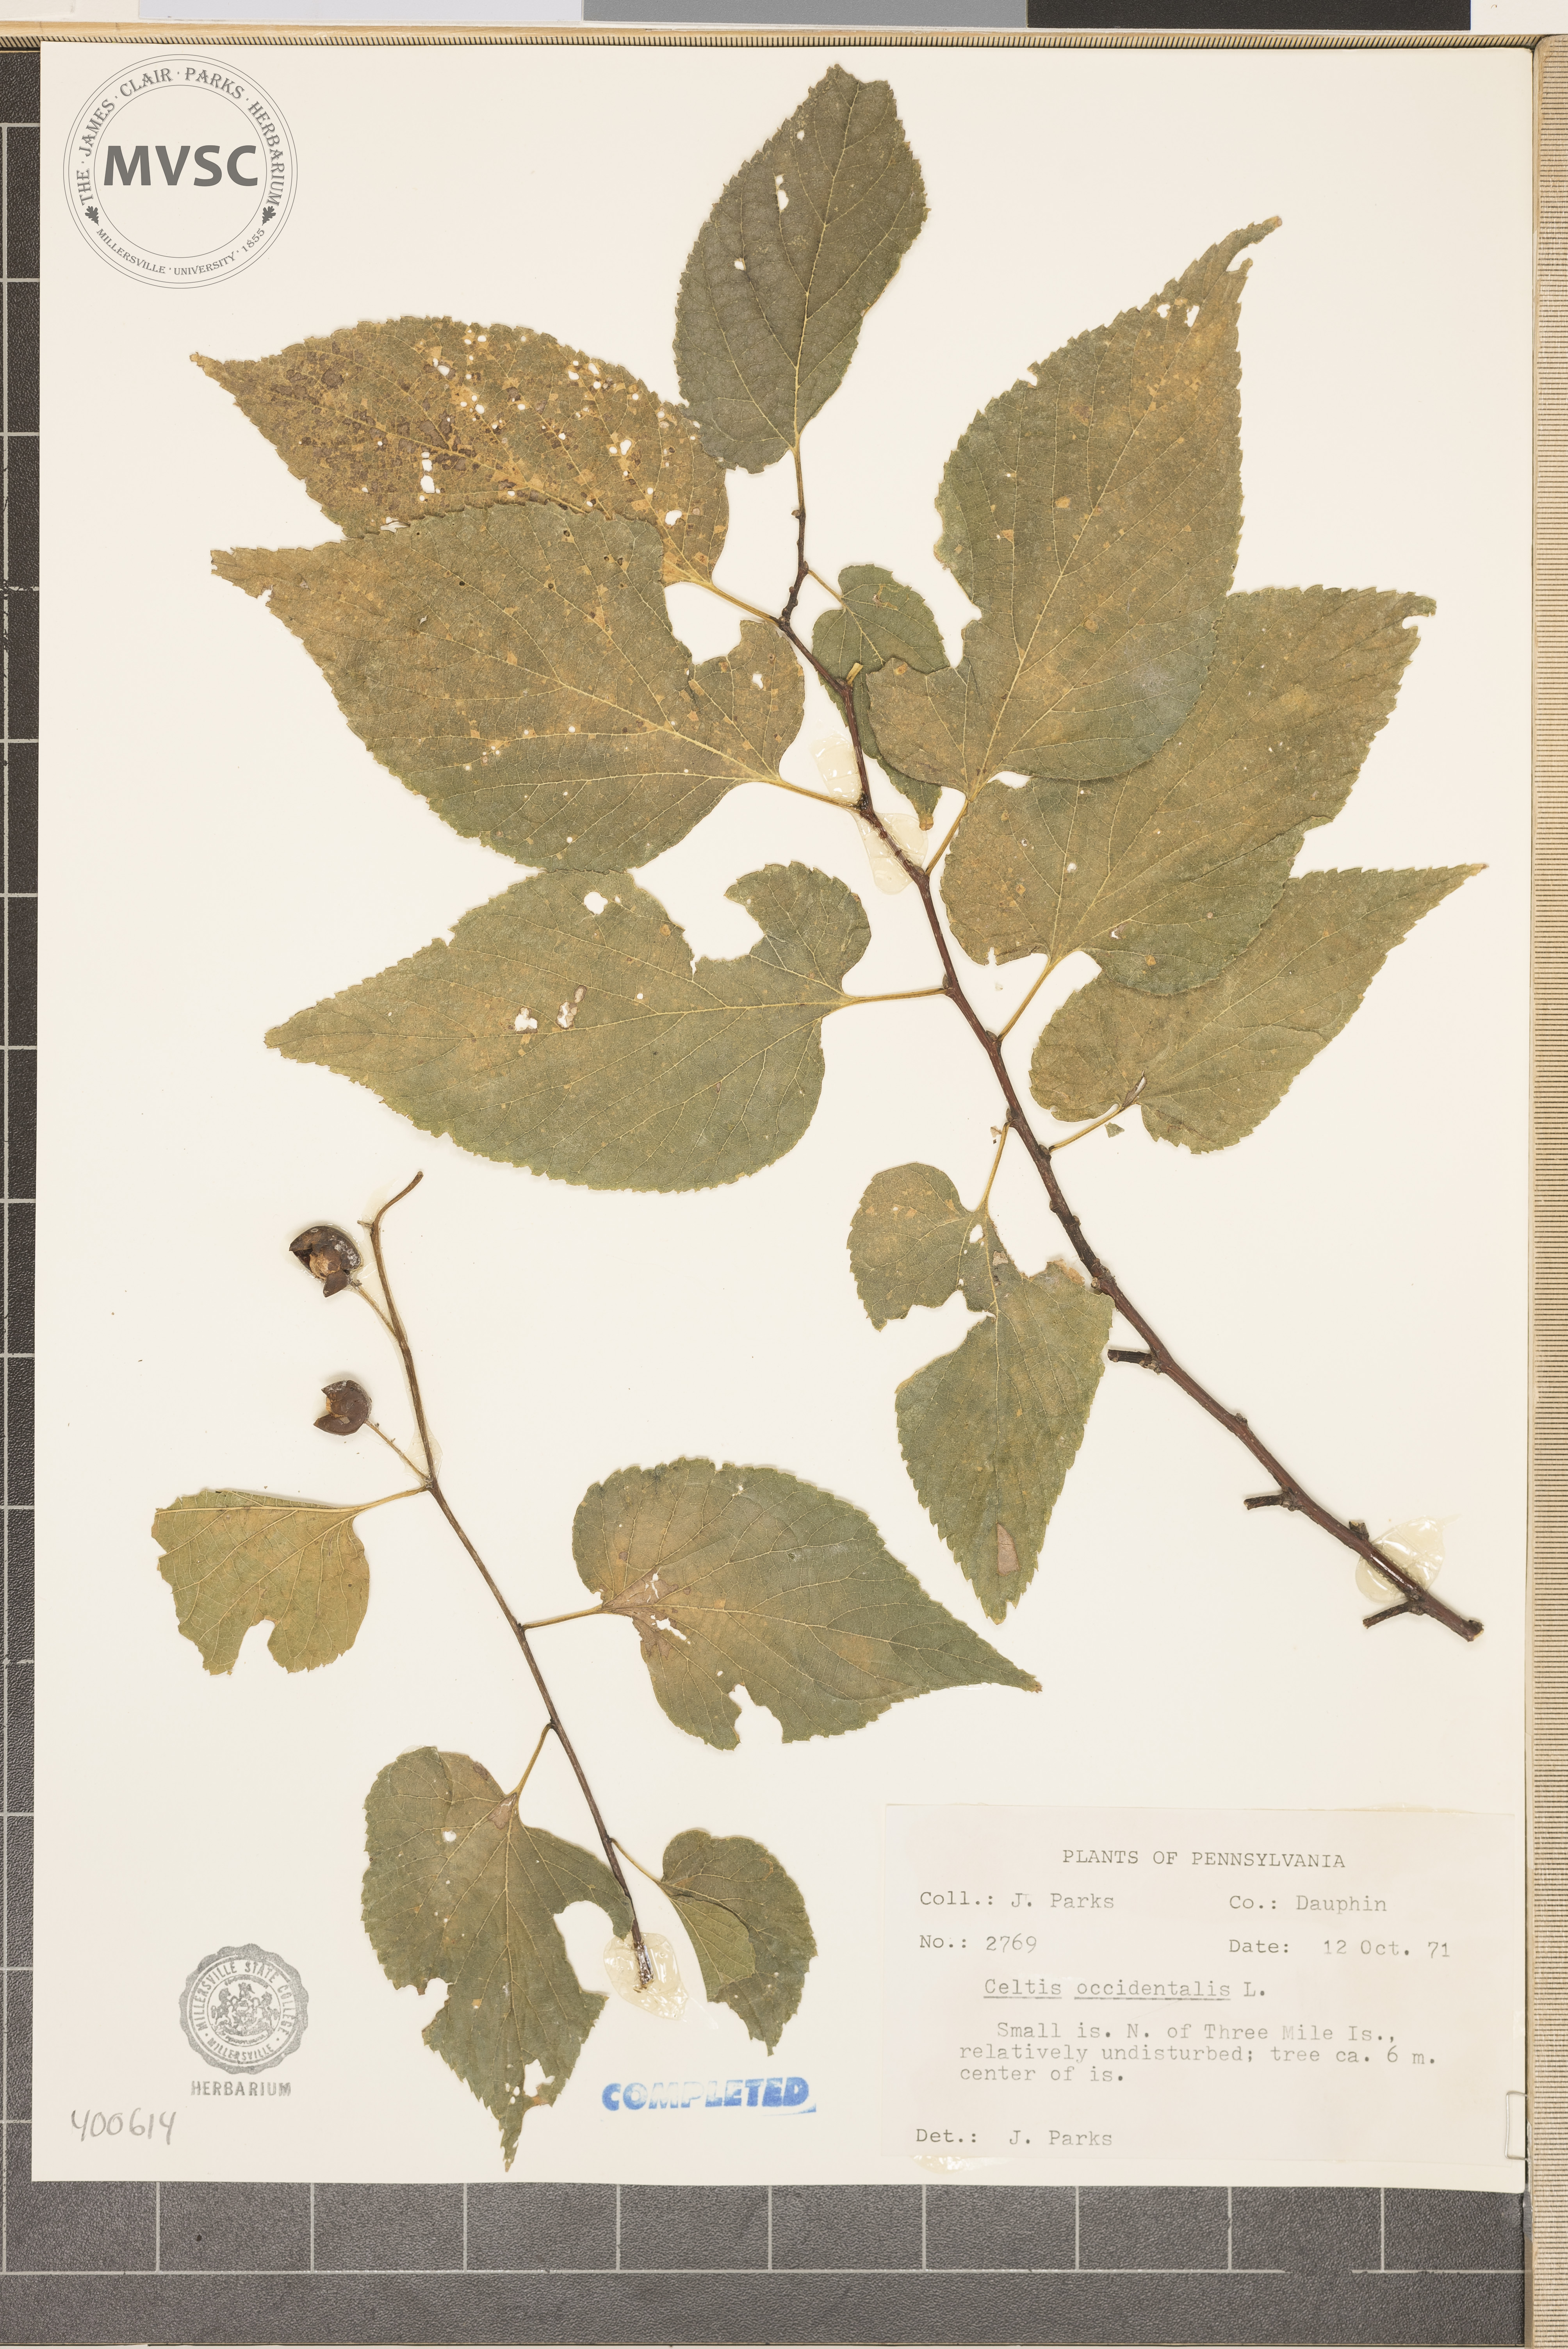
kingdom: Plantae
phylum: Tracheophyta
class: Magnoliopsida
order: Rosales
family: Cannabaceae
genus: Celtis
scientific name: Celtis occidentalis
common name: hackberry
